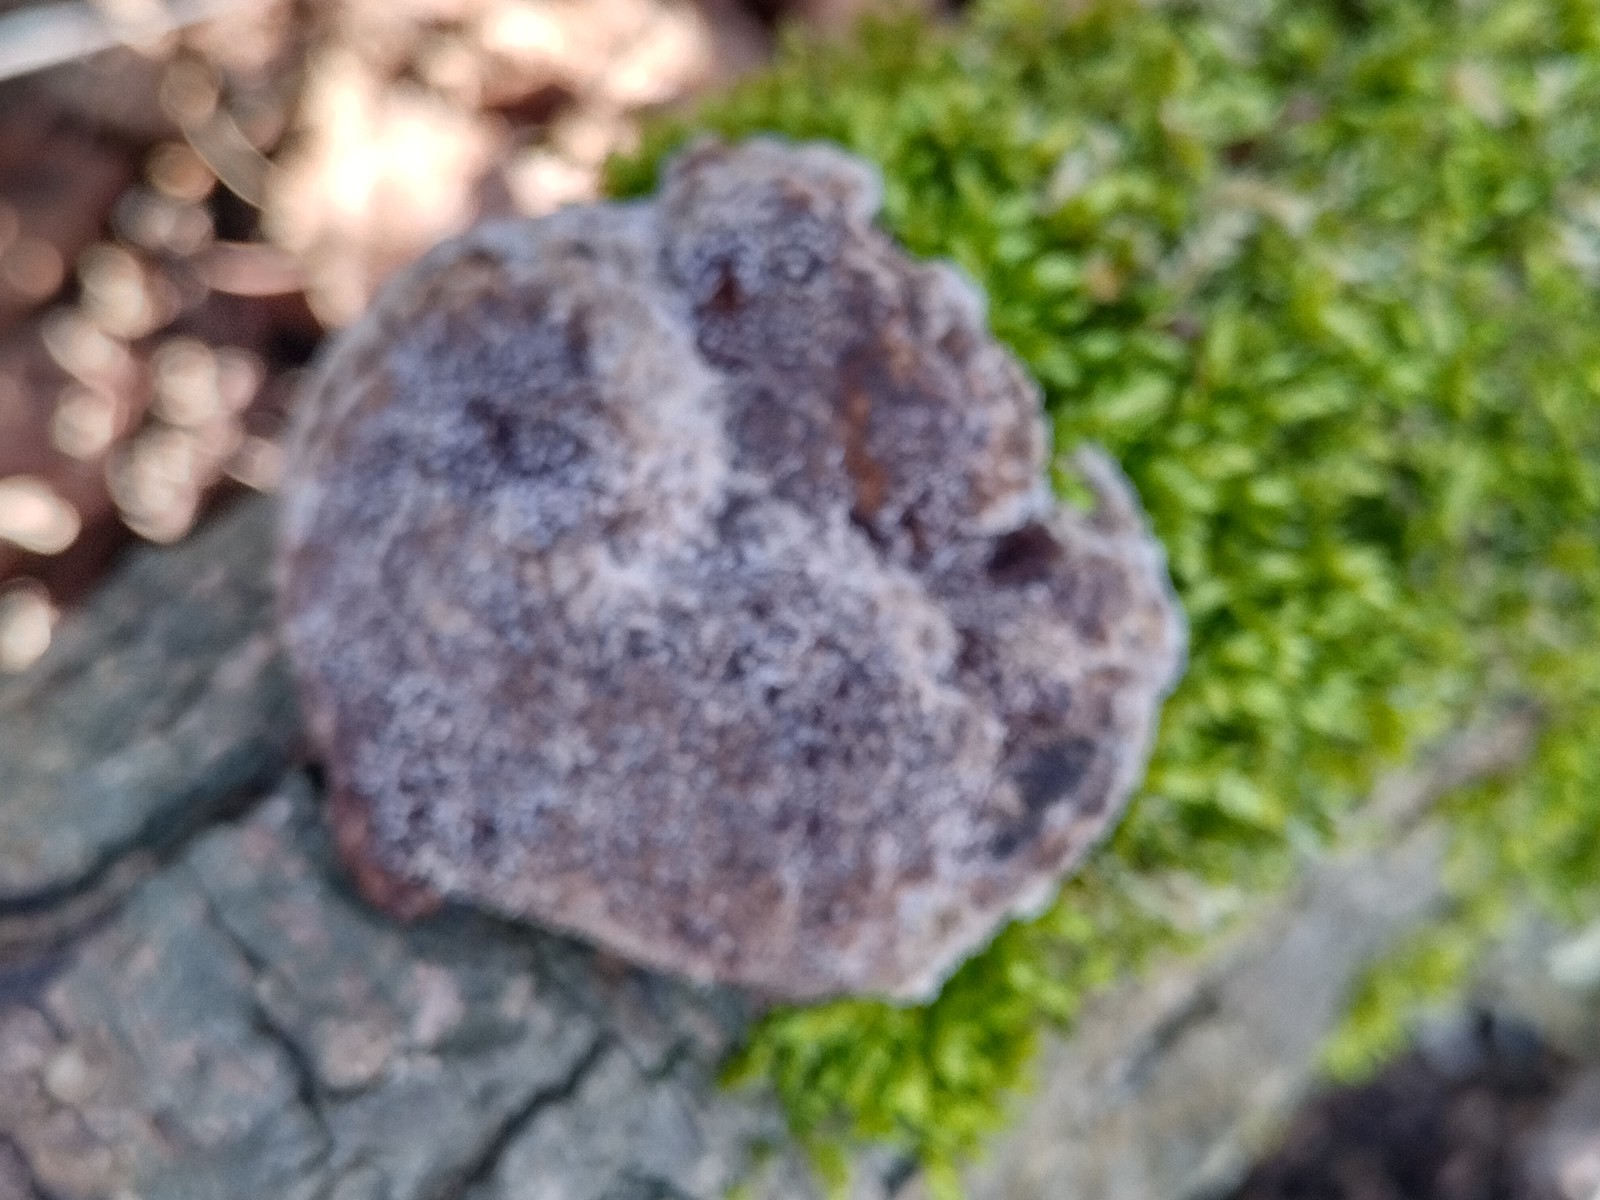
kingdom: Fungi
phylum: Basidiomycota
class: Agaricomycetes
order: Polyporales
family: Polyporaceae
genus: Daedaleopsis
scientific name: Daedaleopsis confragosa
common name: rødmende læderporesvamp
